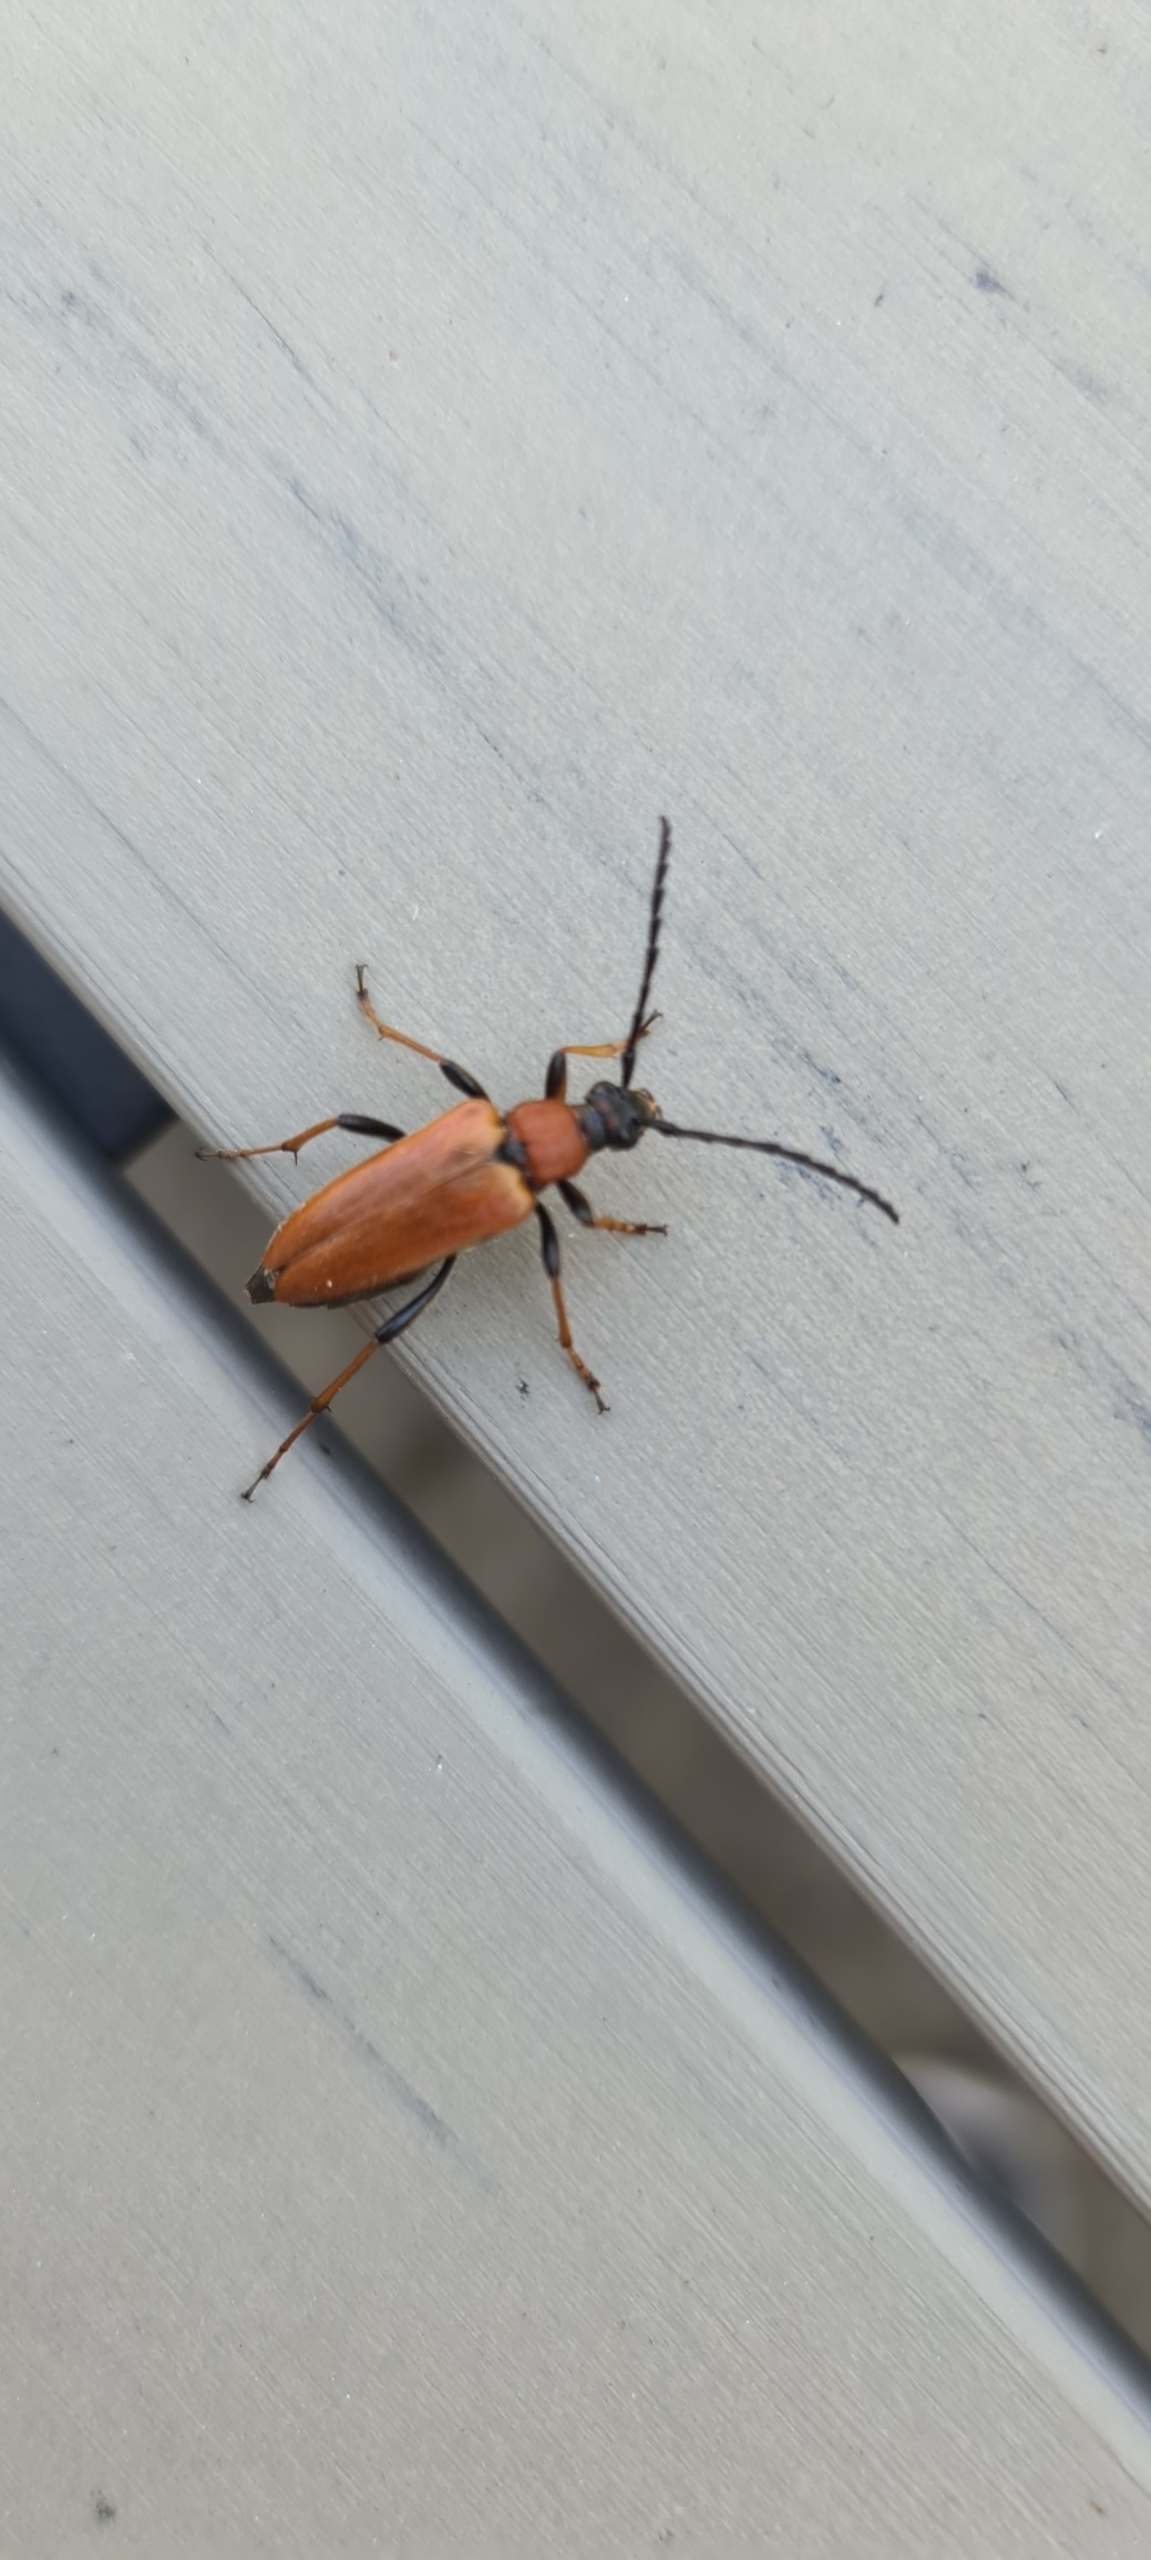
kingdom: Animalia
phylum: Arthropoda
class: Insecta
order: Coleoptera
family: Cerambycidae
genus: Stictoleptura
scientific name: Stictoleptura rubra
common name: Rød blomsterbuk
